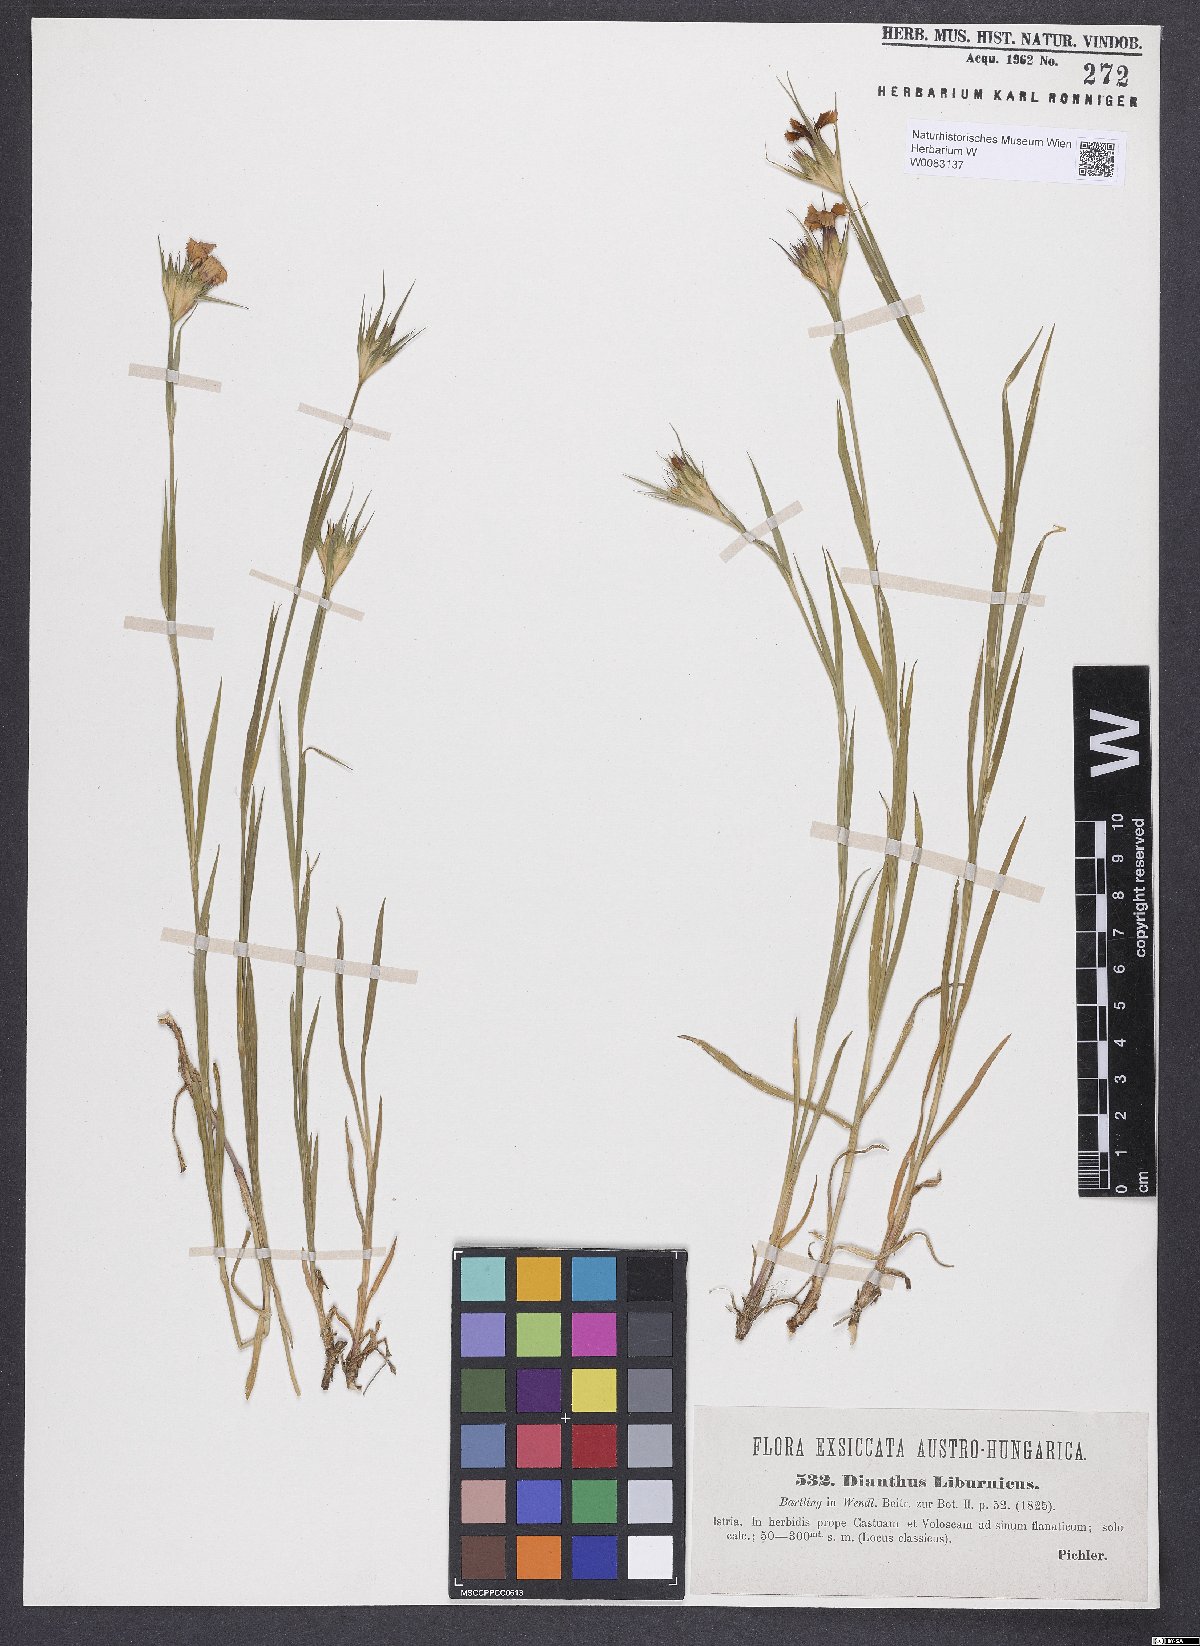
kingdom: Plantae
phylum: Tracheophyta
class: Magnoliopsida
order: Caryophyllales
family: Caryophyllaceae
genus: Dianthus
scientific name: Dianthus balbisii
